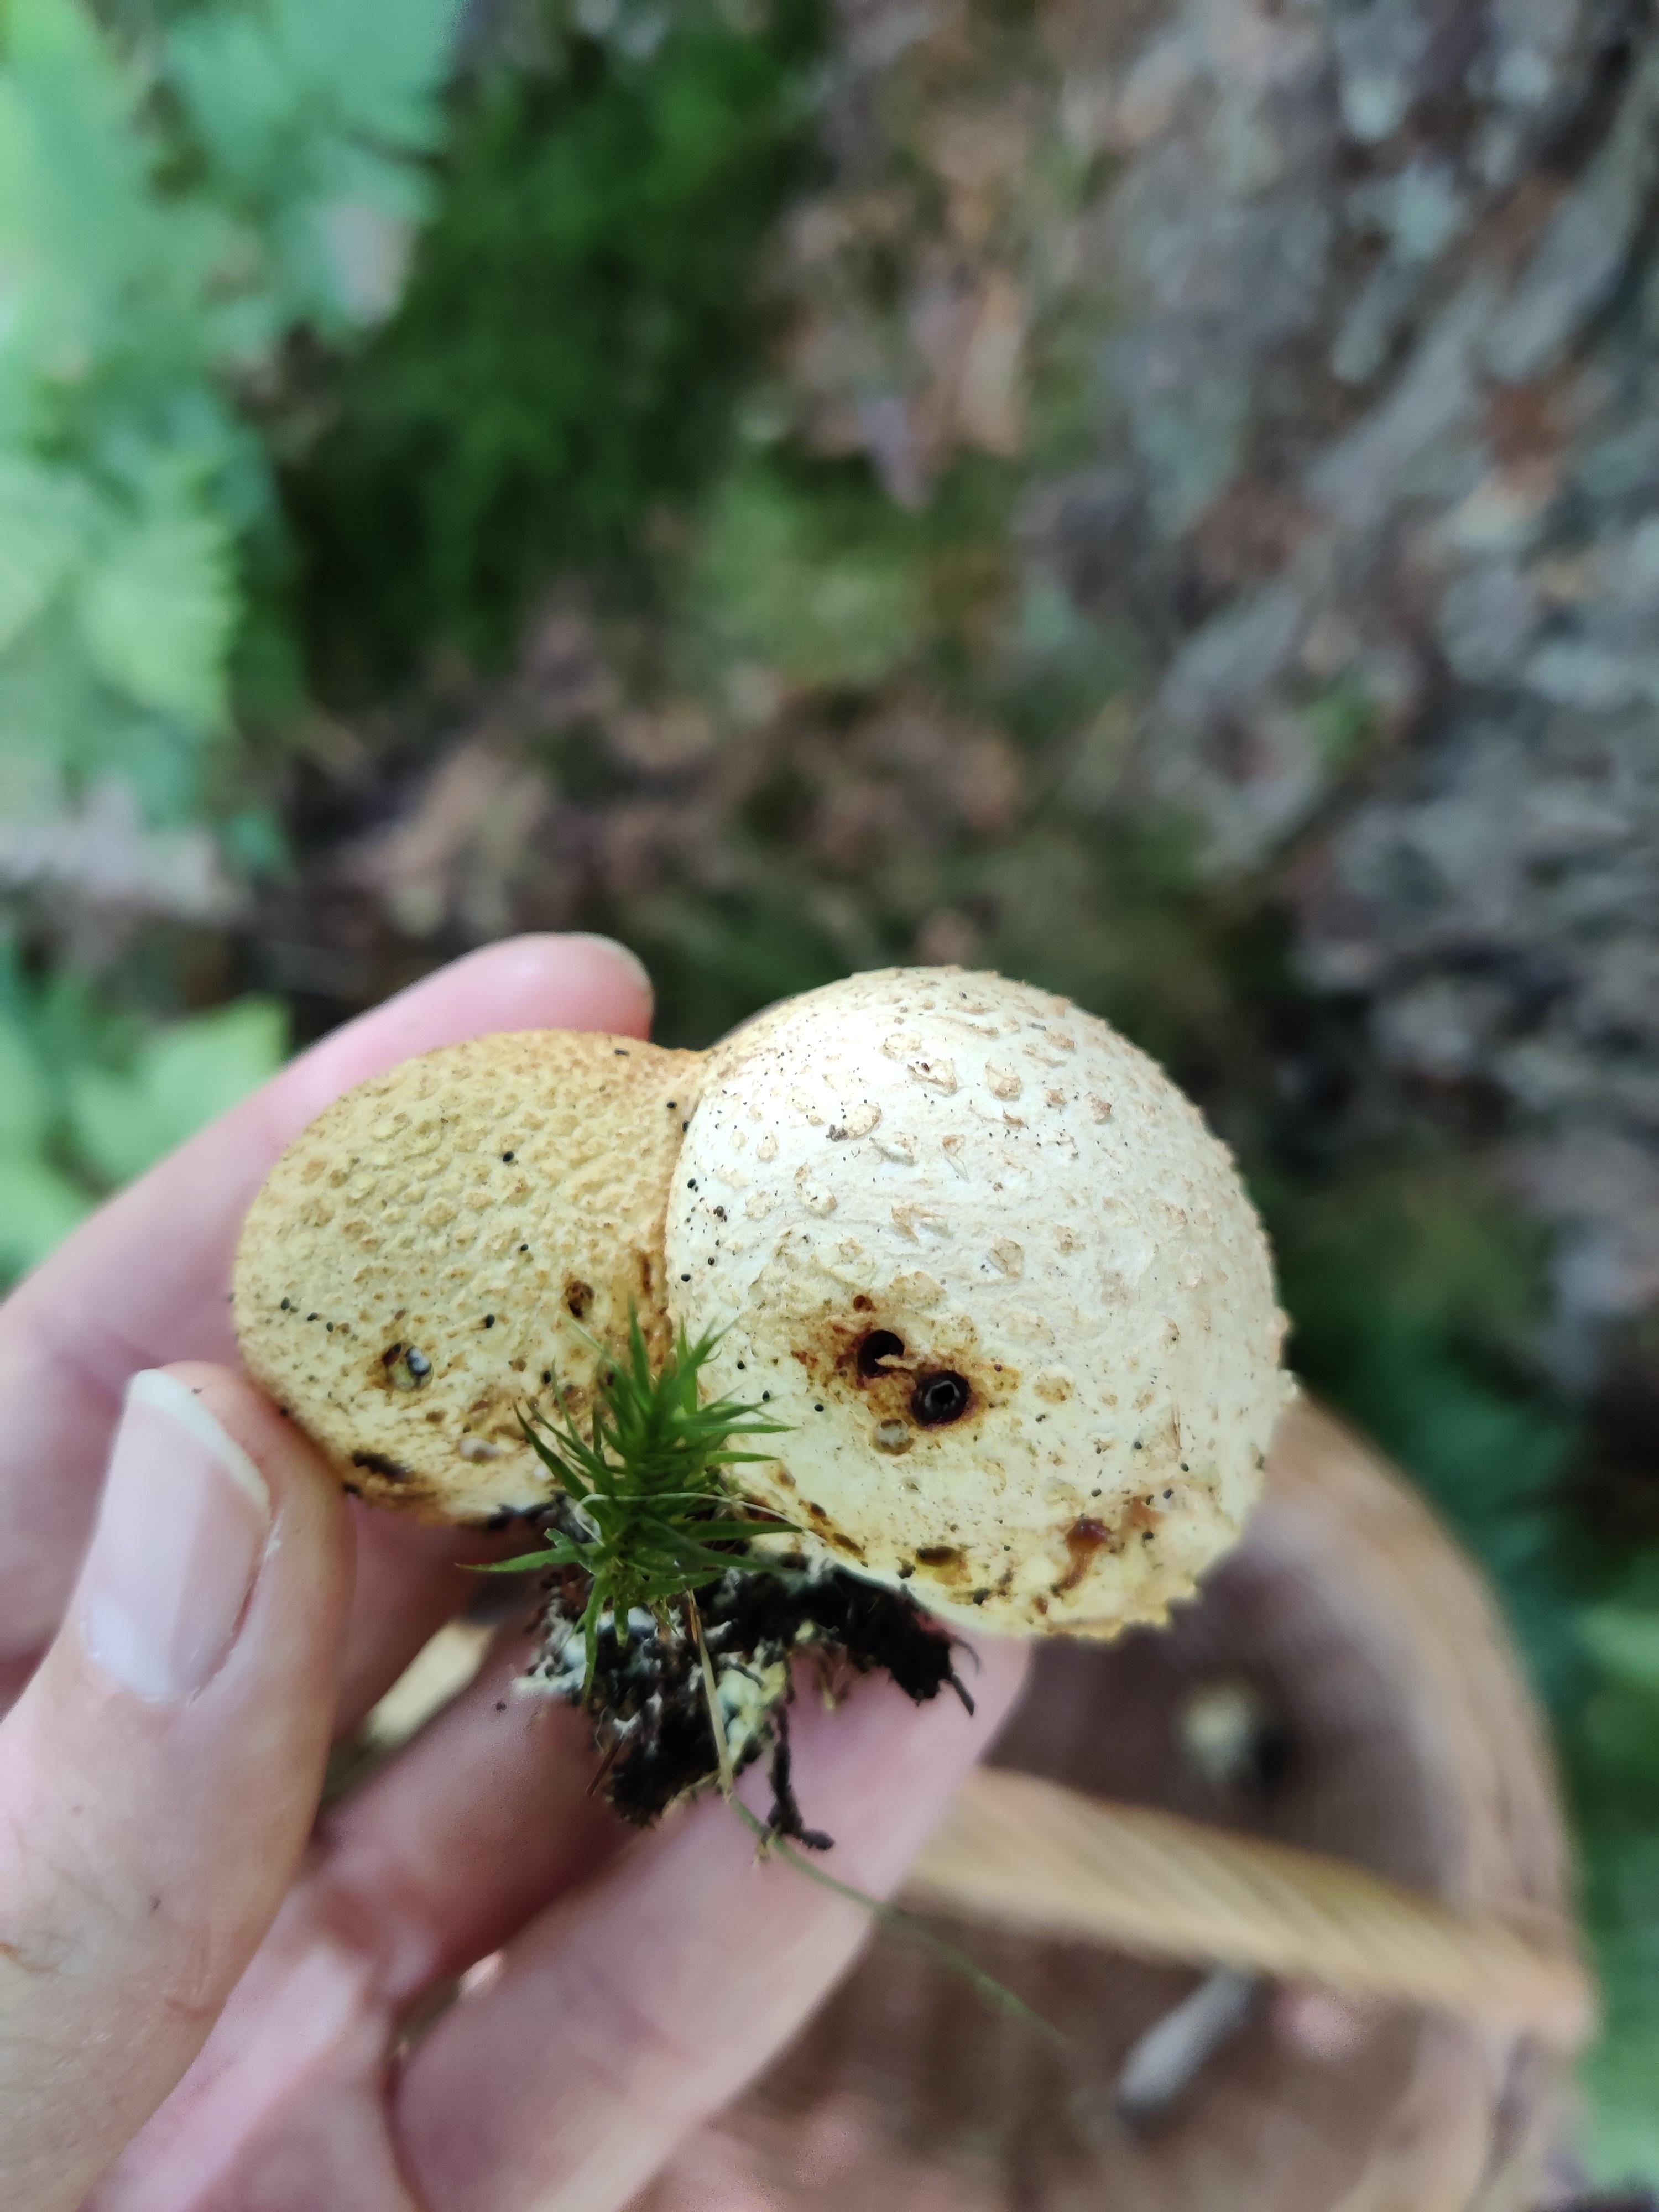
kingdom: Fungi
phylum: Basidiomycota
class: Agaricomycetes
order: Boletales
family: Sclerodermataceae
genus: Scleroderma
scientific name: Scleroderma citrinum
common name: almindelig bruskbold
